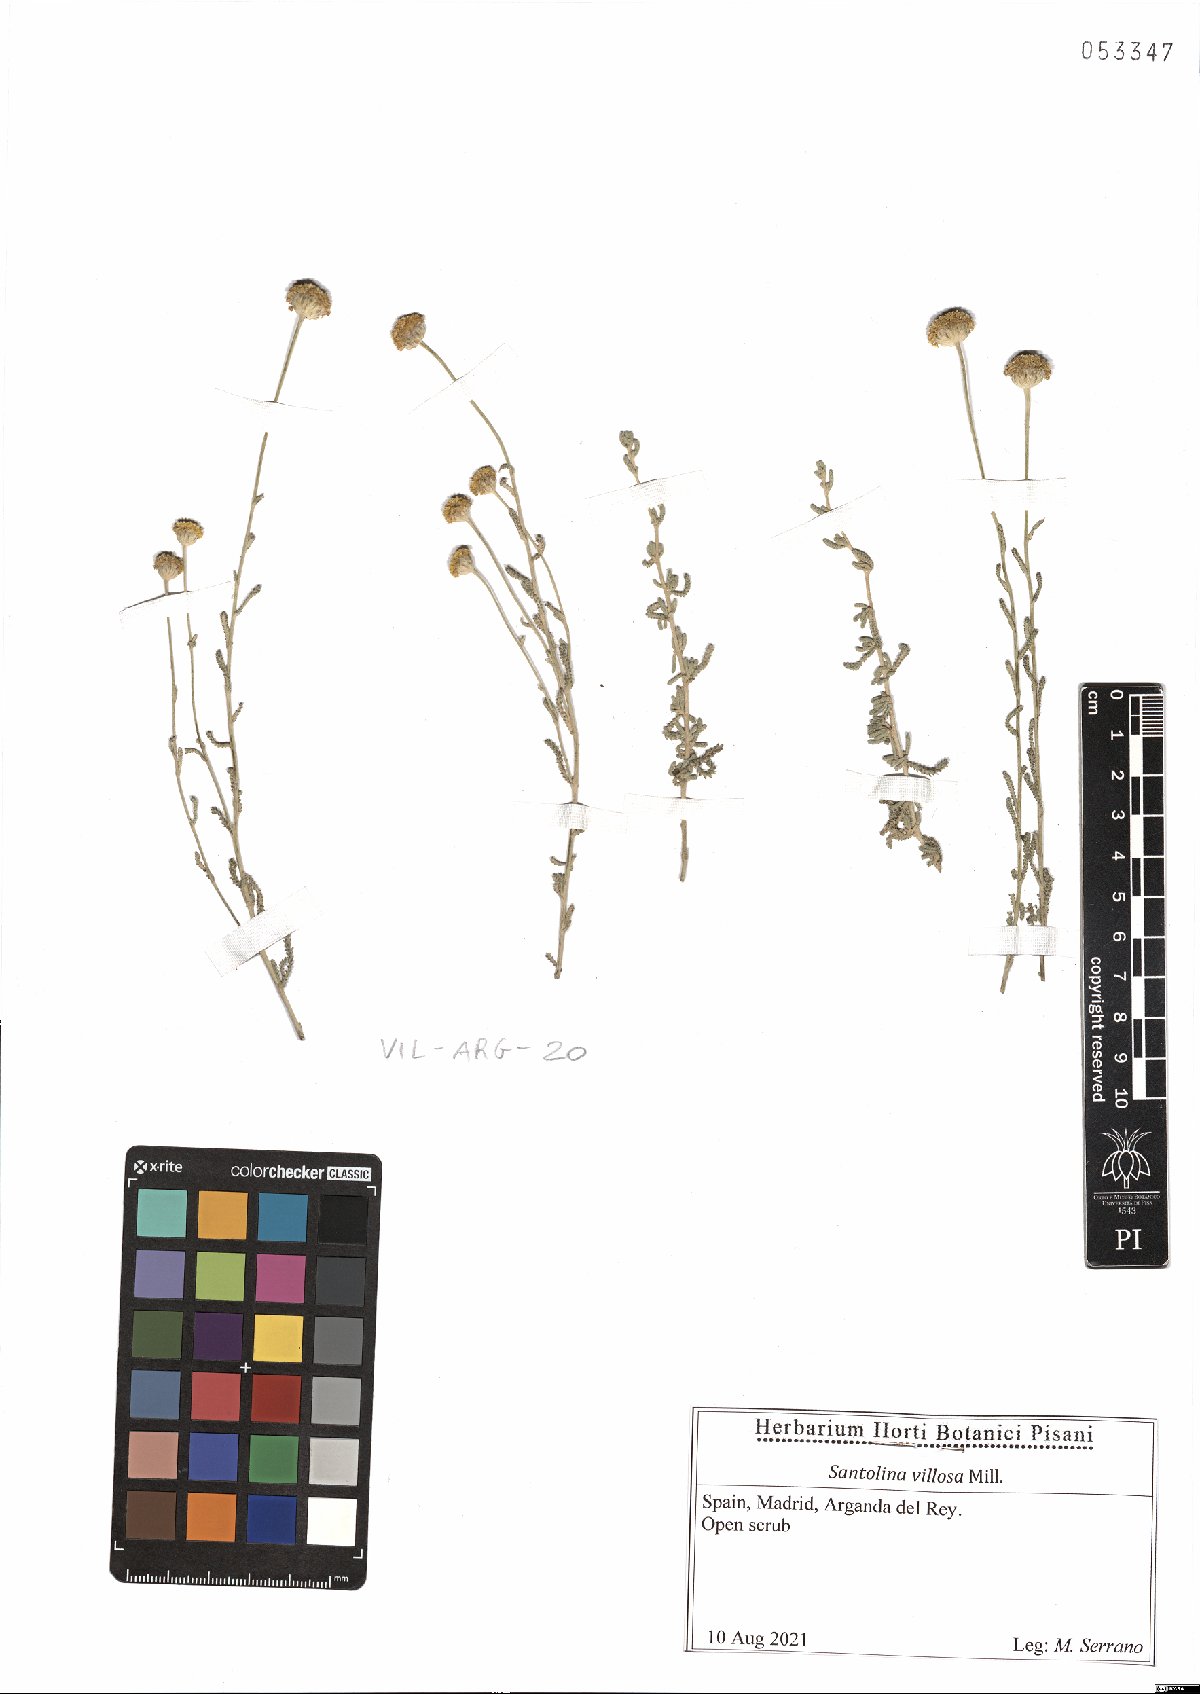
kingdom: Plantae
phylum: Tracheophyta
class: Magnoliopsida
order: Asterales
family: Asteraceae
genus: Santolina
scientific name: Santolina chamaecyparissus
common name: Lavender-cotton
